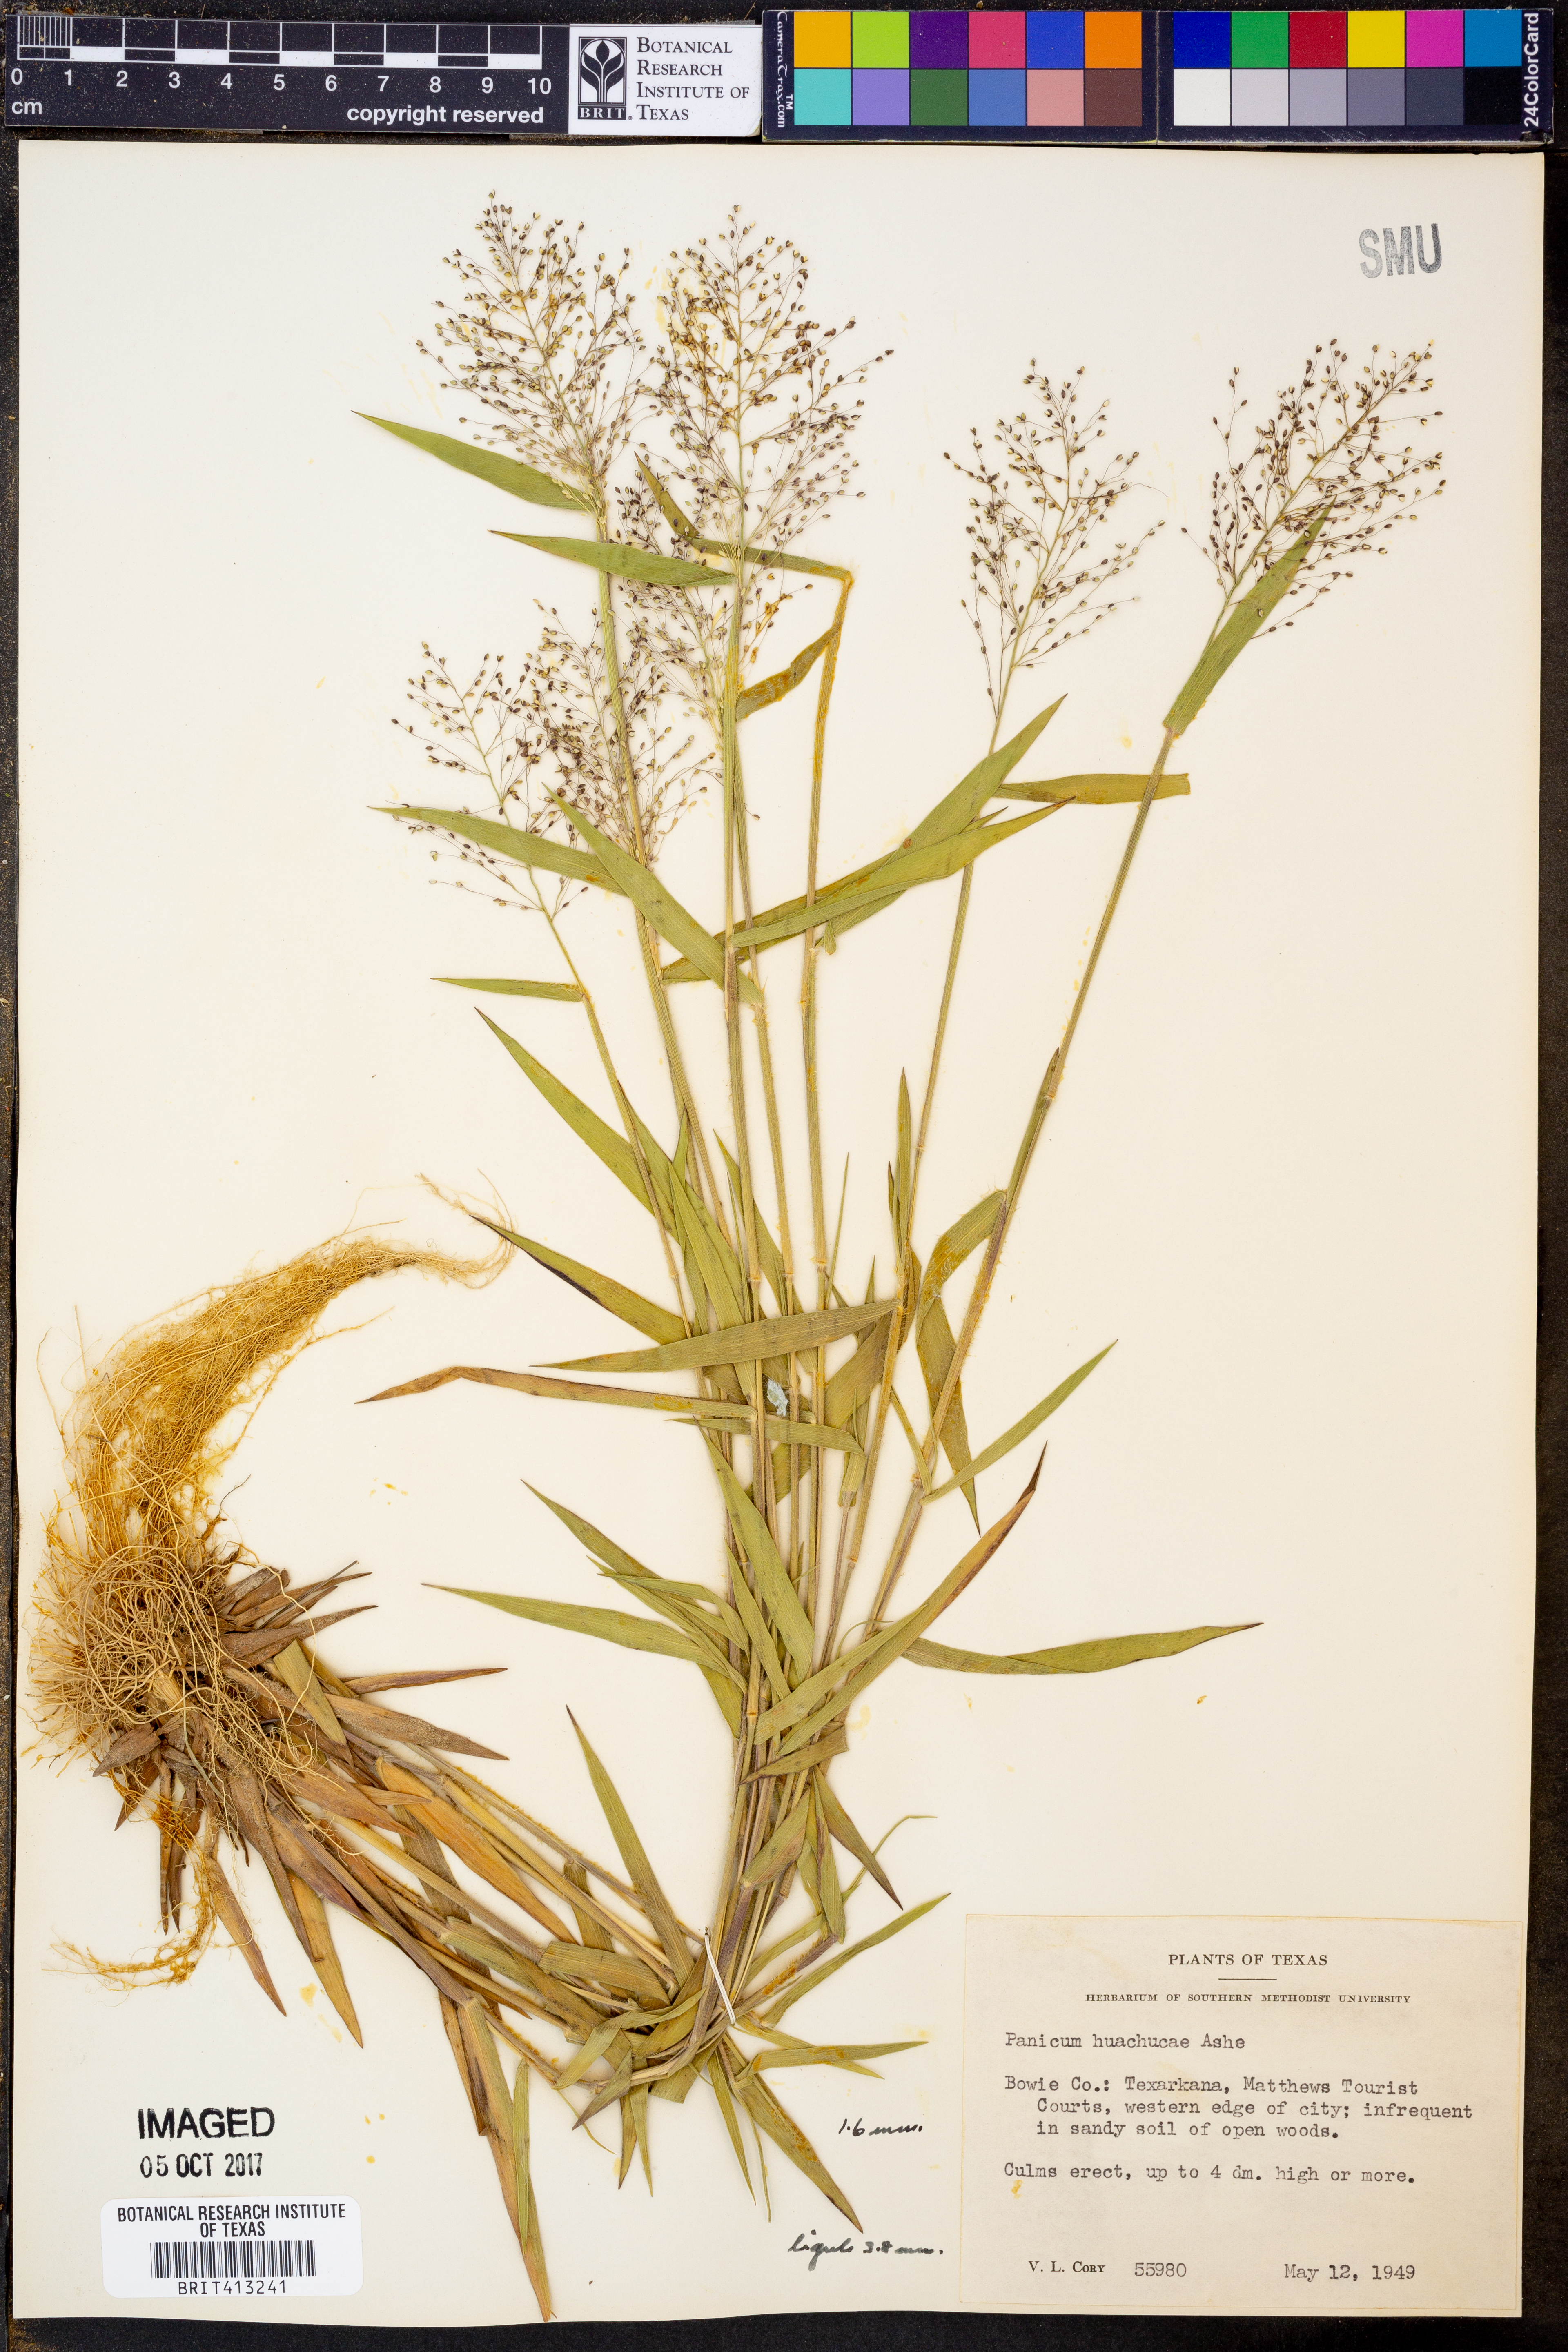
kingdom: Plantae
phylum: Tracheophyta
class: Liliopsida
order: Poales
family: Poaceae
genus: Dichanthelium
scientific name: Dichanthelium lanuginosum
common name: Woolly panicgrass
